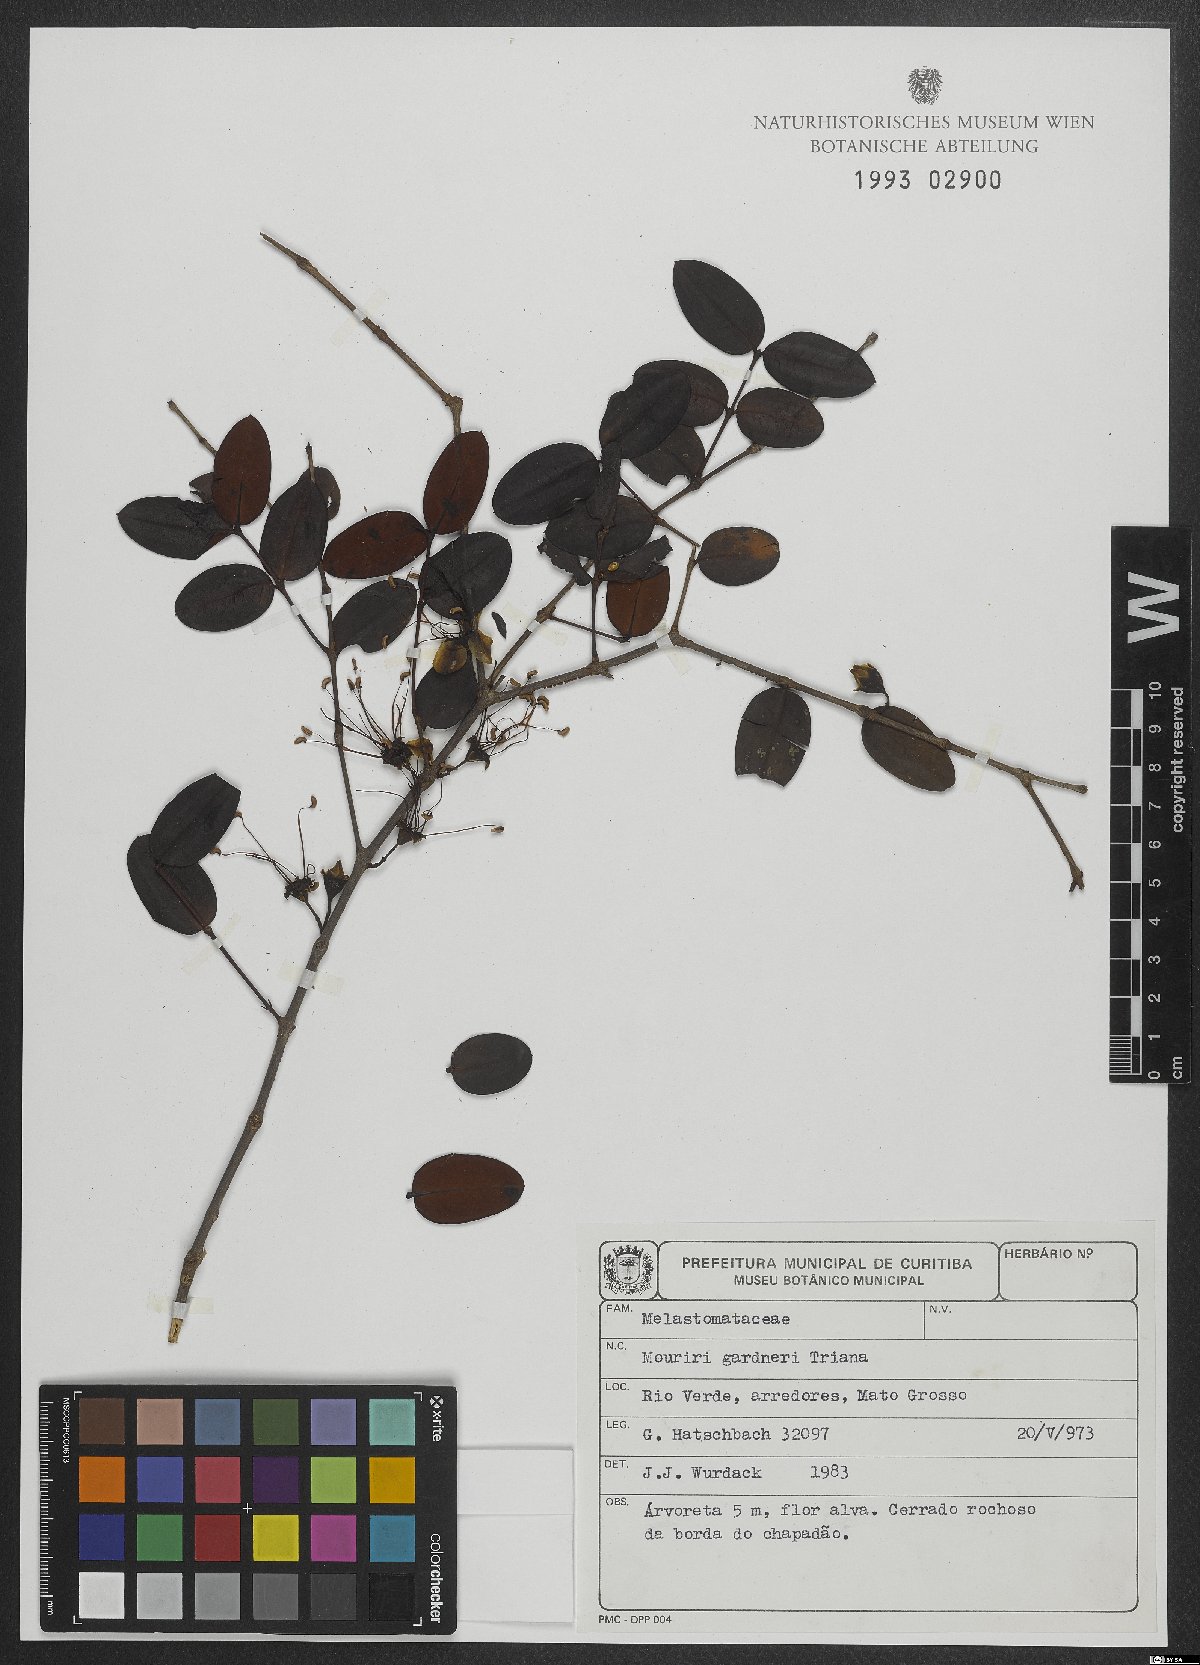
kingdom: Plantae
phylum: Tracheophyta
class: Magnoliopsida
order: Myrtales
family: Melastomataceae
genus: Mouriri
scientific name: Mouriri gardneri
